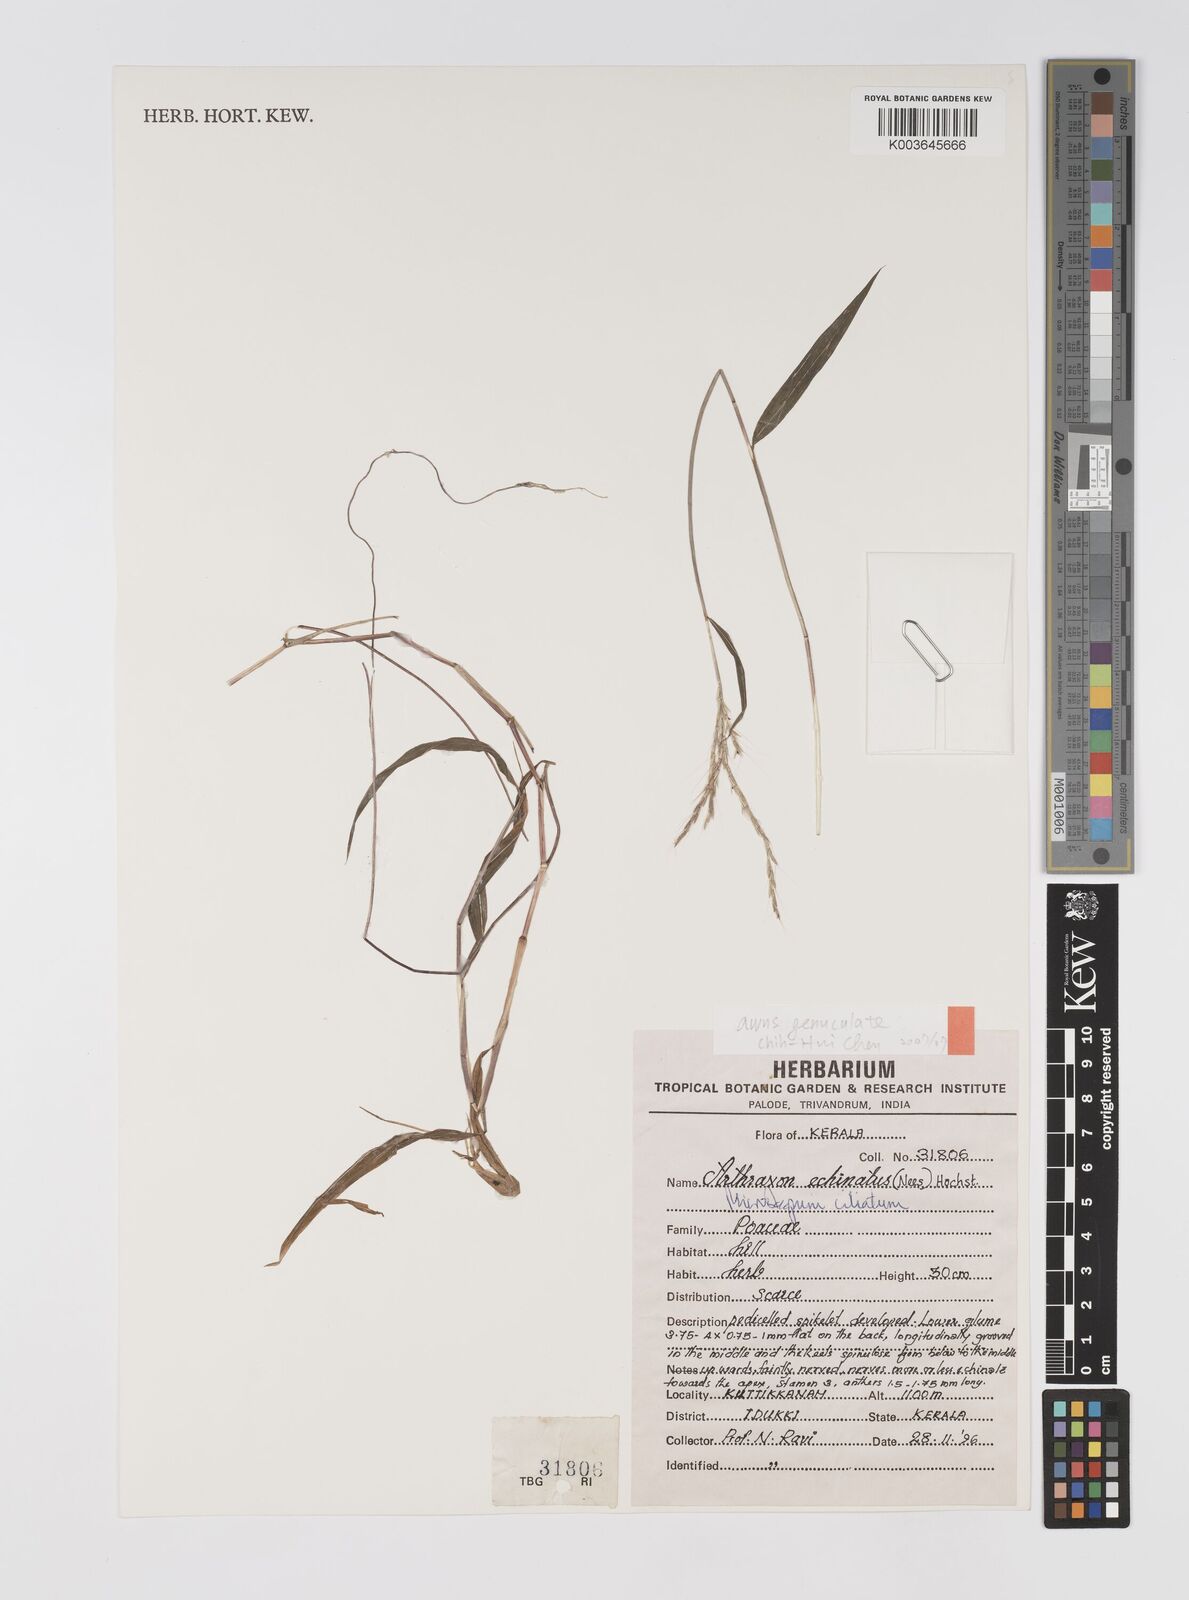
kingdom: Plantae
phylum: Tracheophyta
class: Liliopsida
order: Poales
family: Poaceae
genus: Microstegium
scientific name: Microstegium fasciculatum
